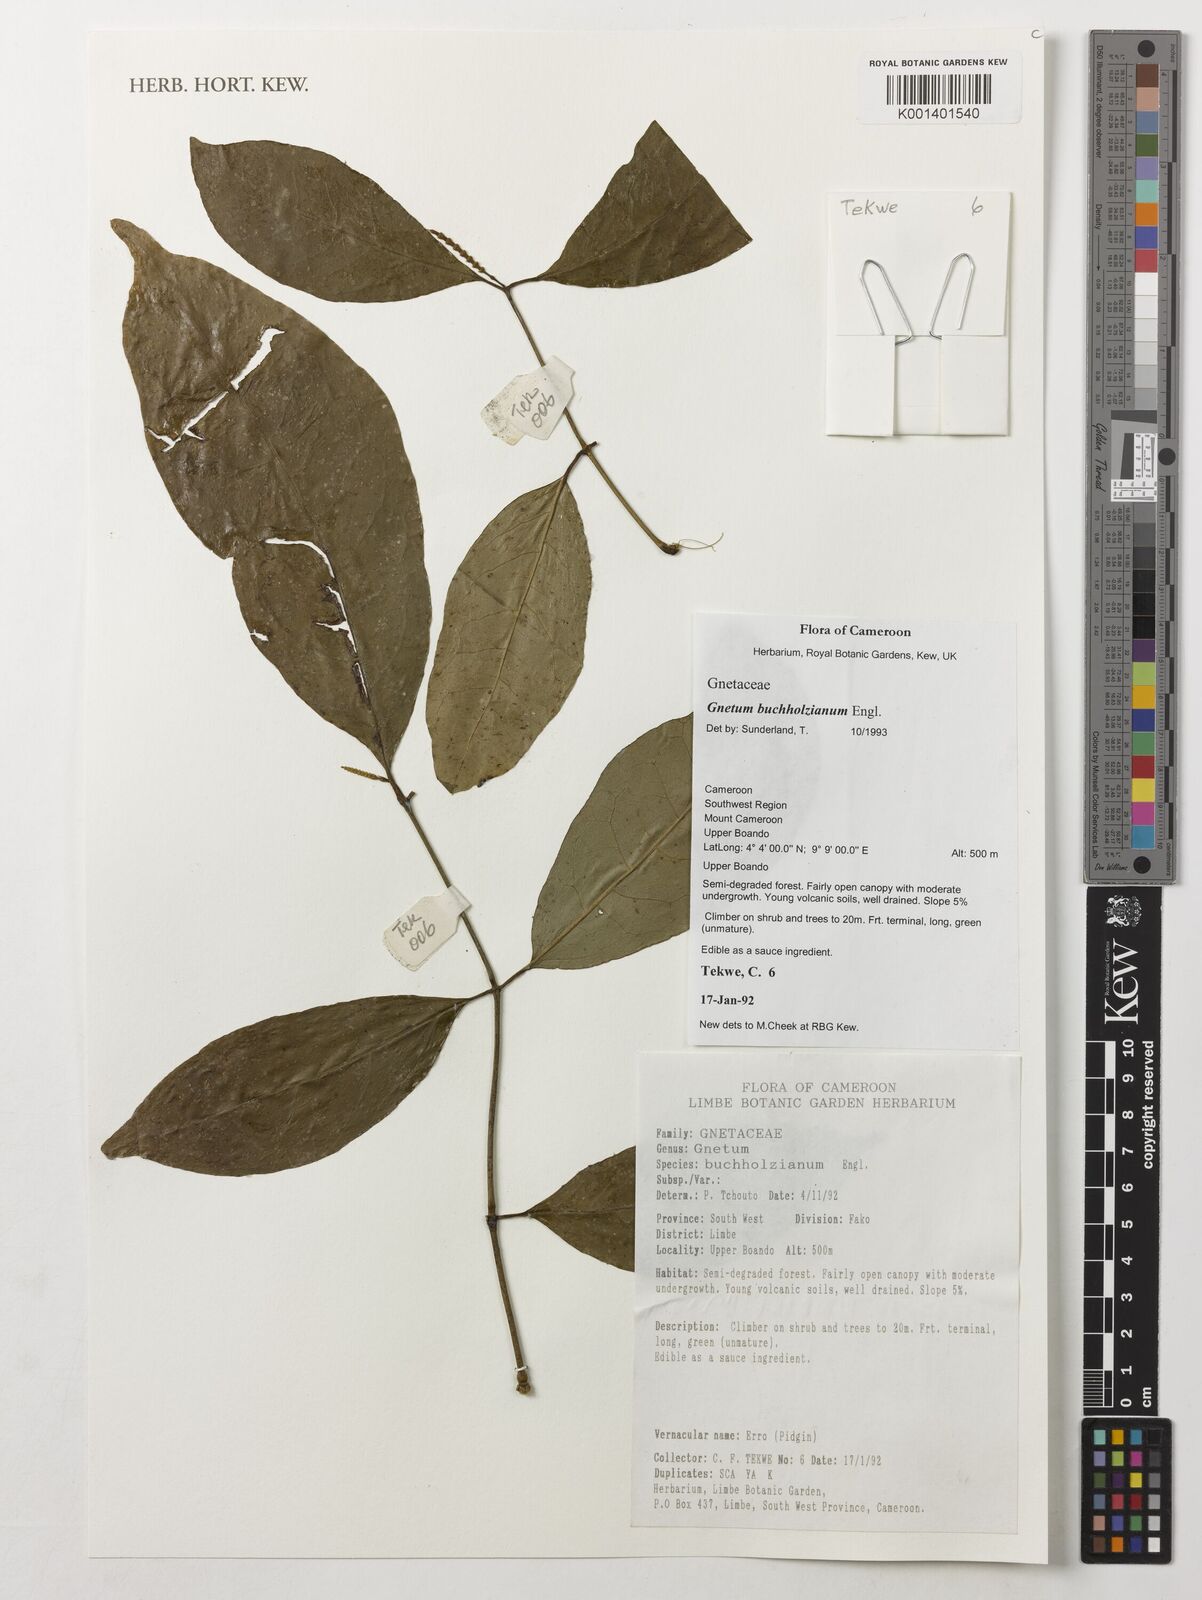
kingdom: Plantae
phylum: Tracheophyta
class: Gnetopsida
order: Gnetales
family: Gnetaceae
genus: Gnetum
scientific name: Gnetum buchholzianum
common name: Eru
